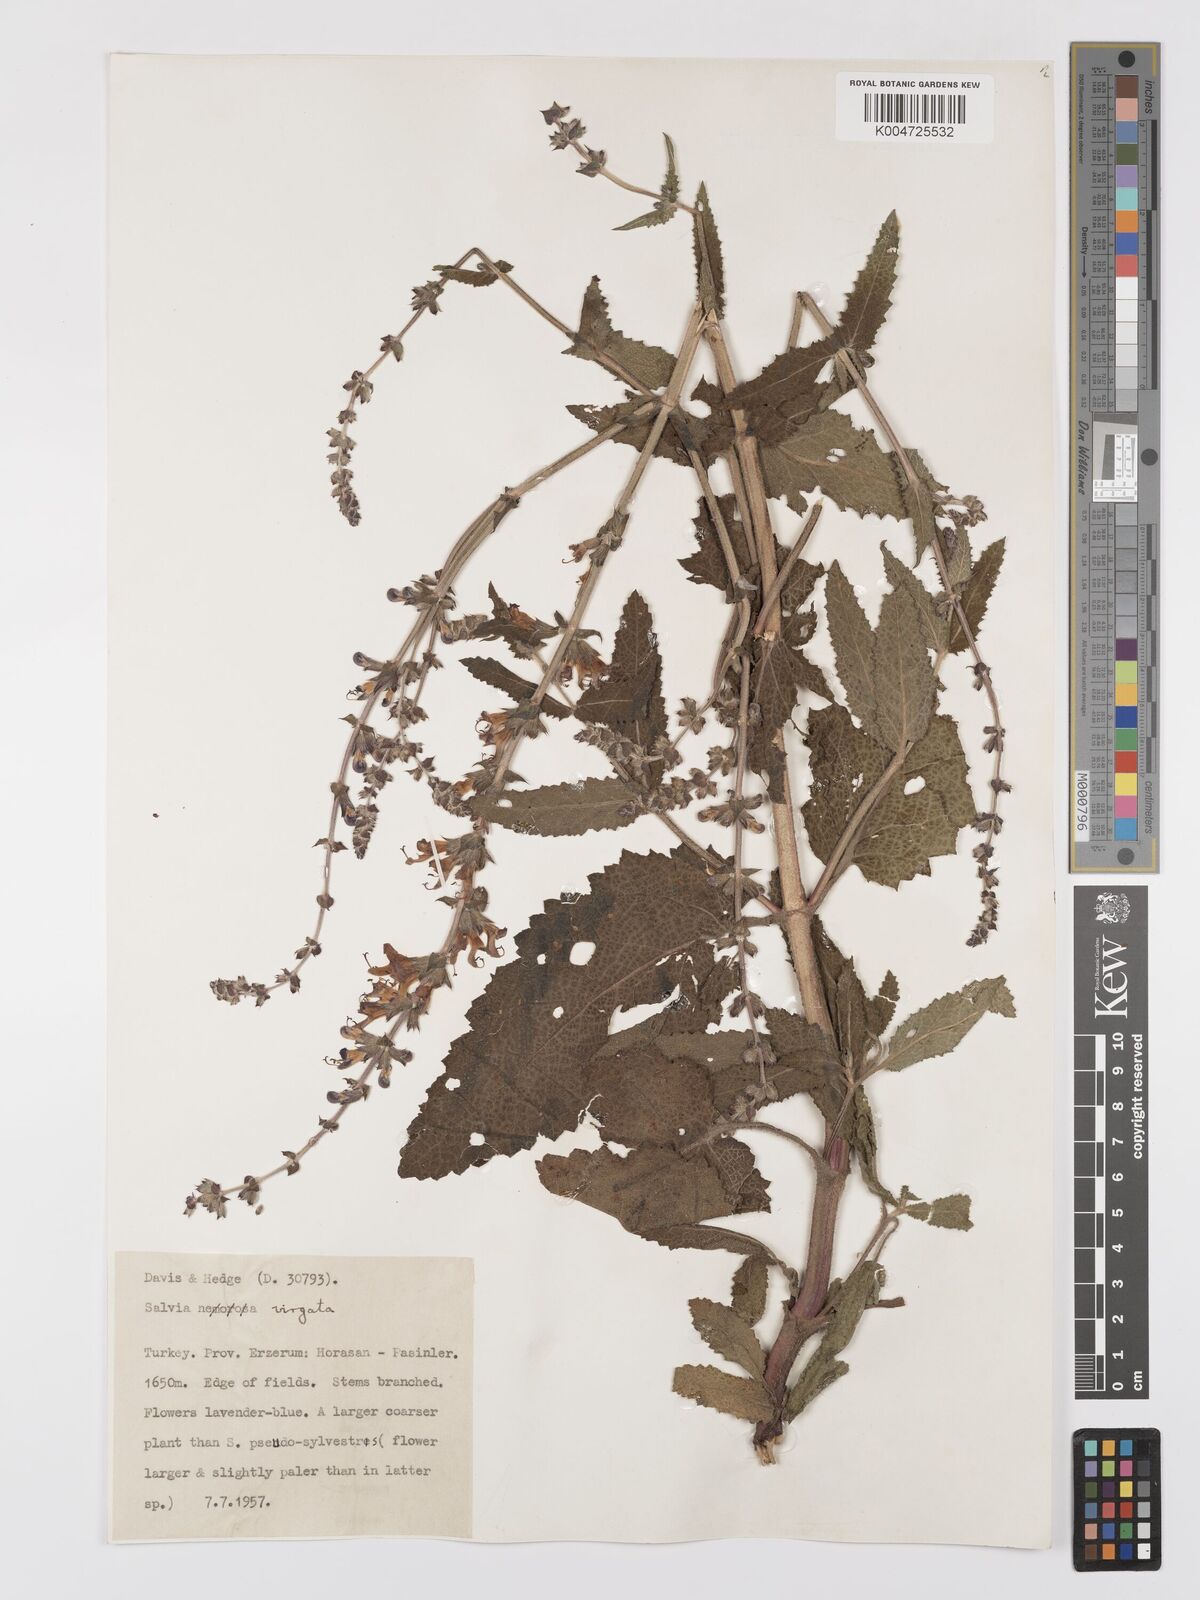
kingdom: Plantae
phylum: Tracheophyta
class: Magnoliopsida
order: Lamiales
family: Lamiaceae
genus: Salvia
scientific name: Salvia
